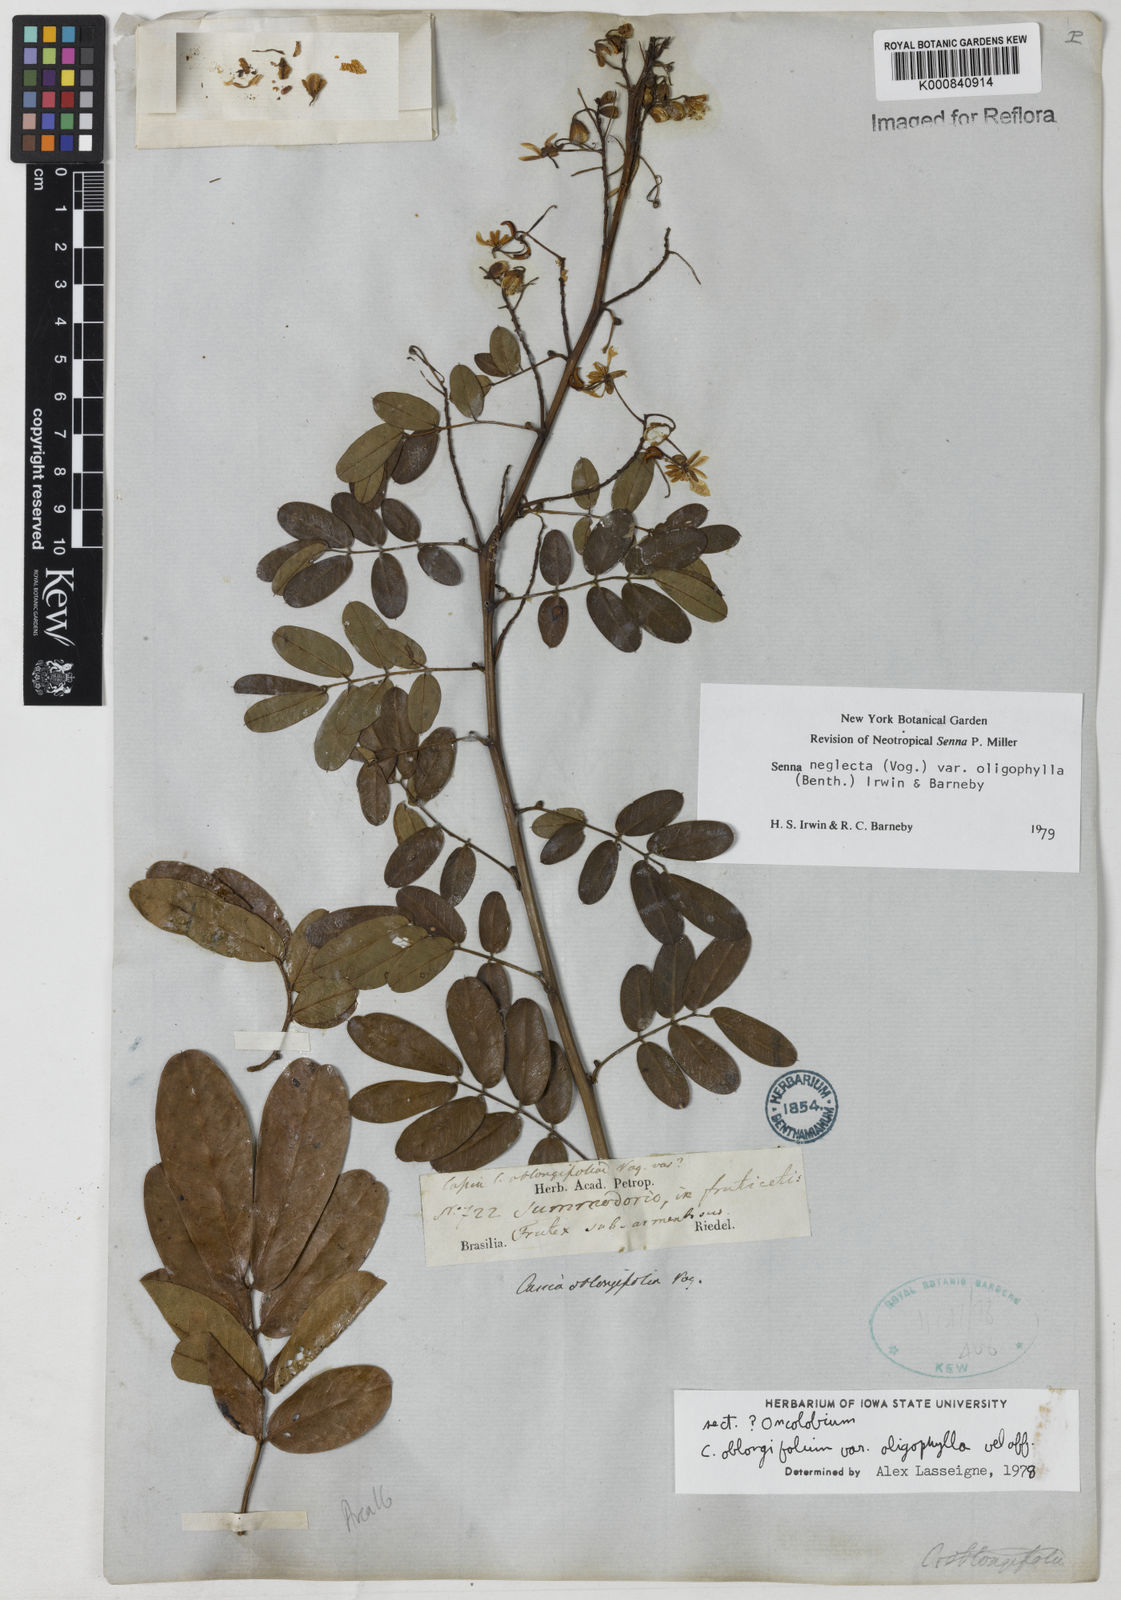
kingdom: Plantae
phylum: Tracheophyta
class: Magnoliopsida
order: Fabales
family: Fabaceae
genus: Senna
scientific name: Senna neglecta
